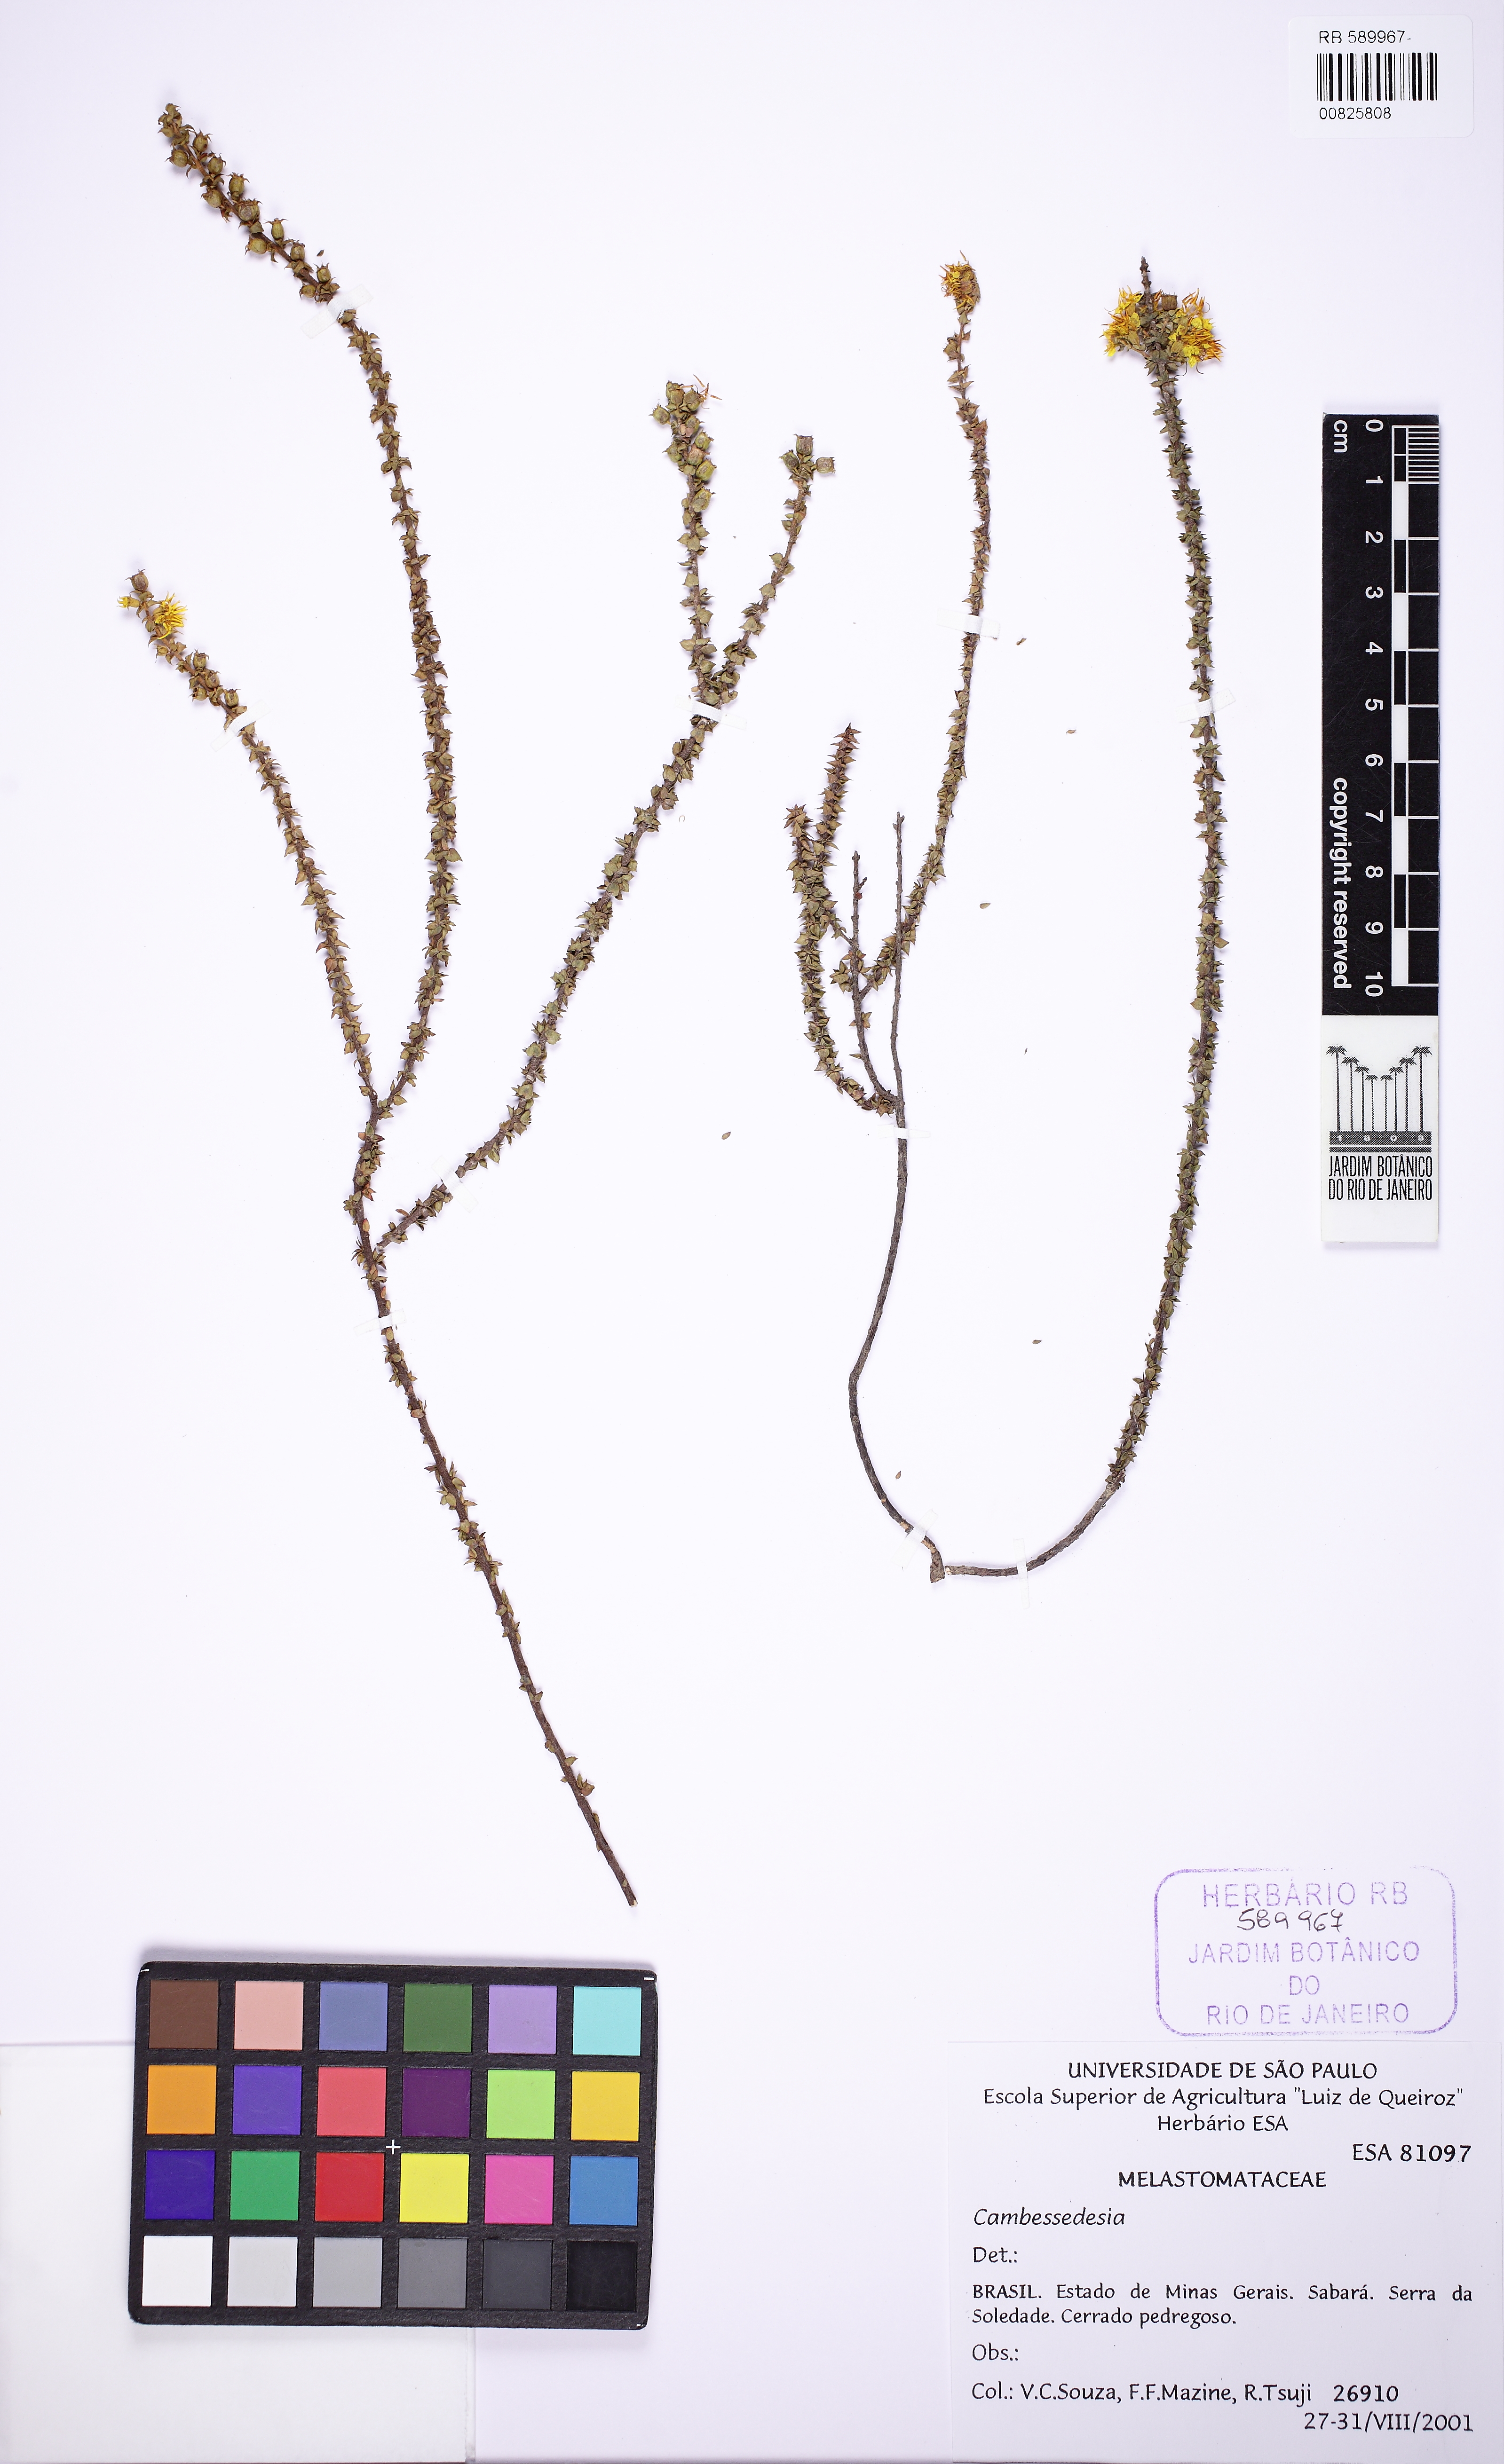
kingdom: Plantae
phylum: Tracheophyta
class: Magnoliopsida
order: Myrtales
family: Melastomataceae
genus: Cambessedesia
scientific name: Cambessedesia
